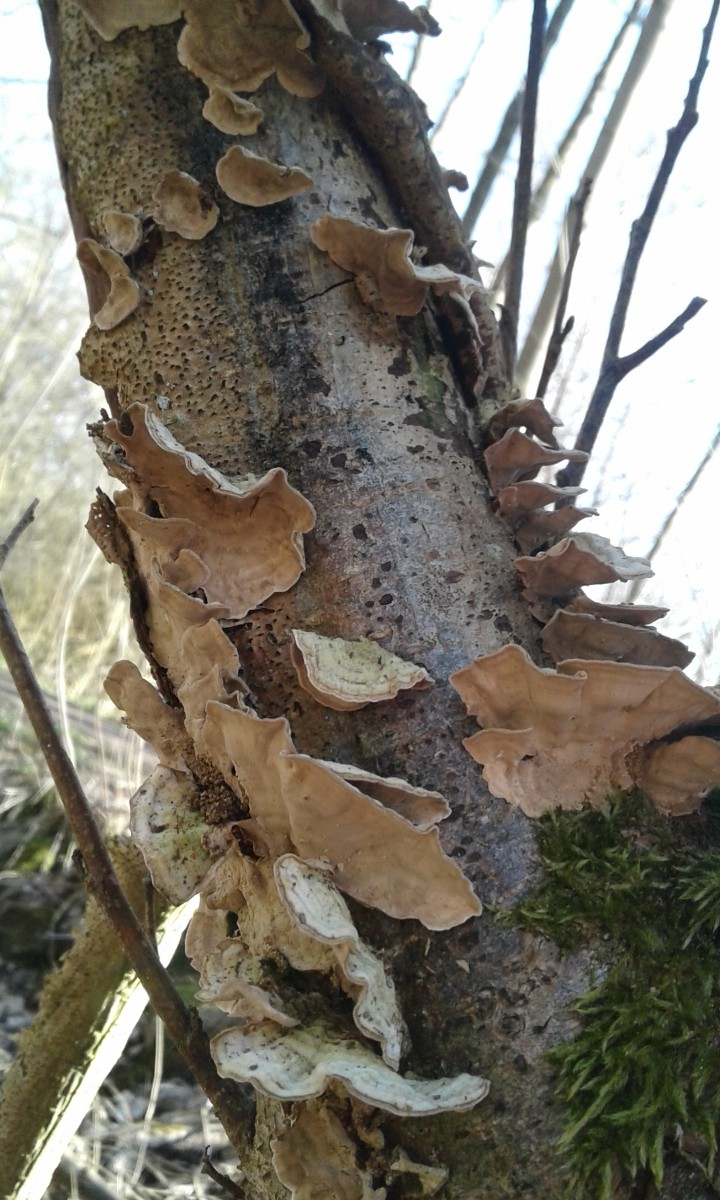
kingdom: Fungi
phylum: Basidiomycota
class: Agaricomycetes
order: Russulales
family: Stereaceae
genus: Stereum
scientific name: Stereum hirsutum
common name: håret lædersvamp
